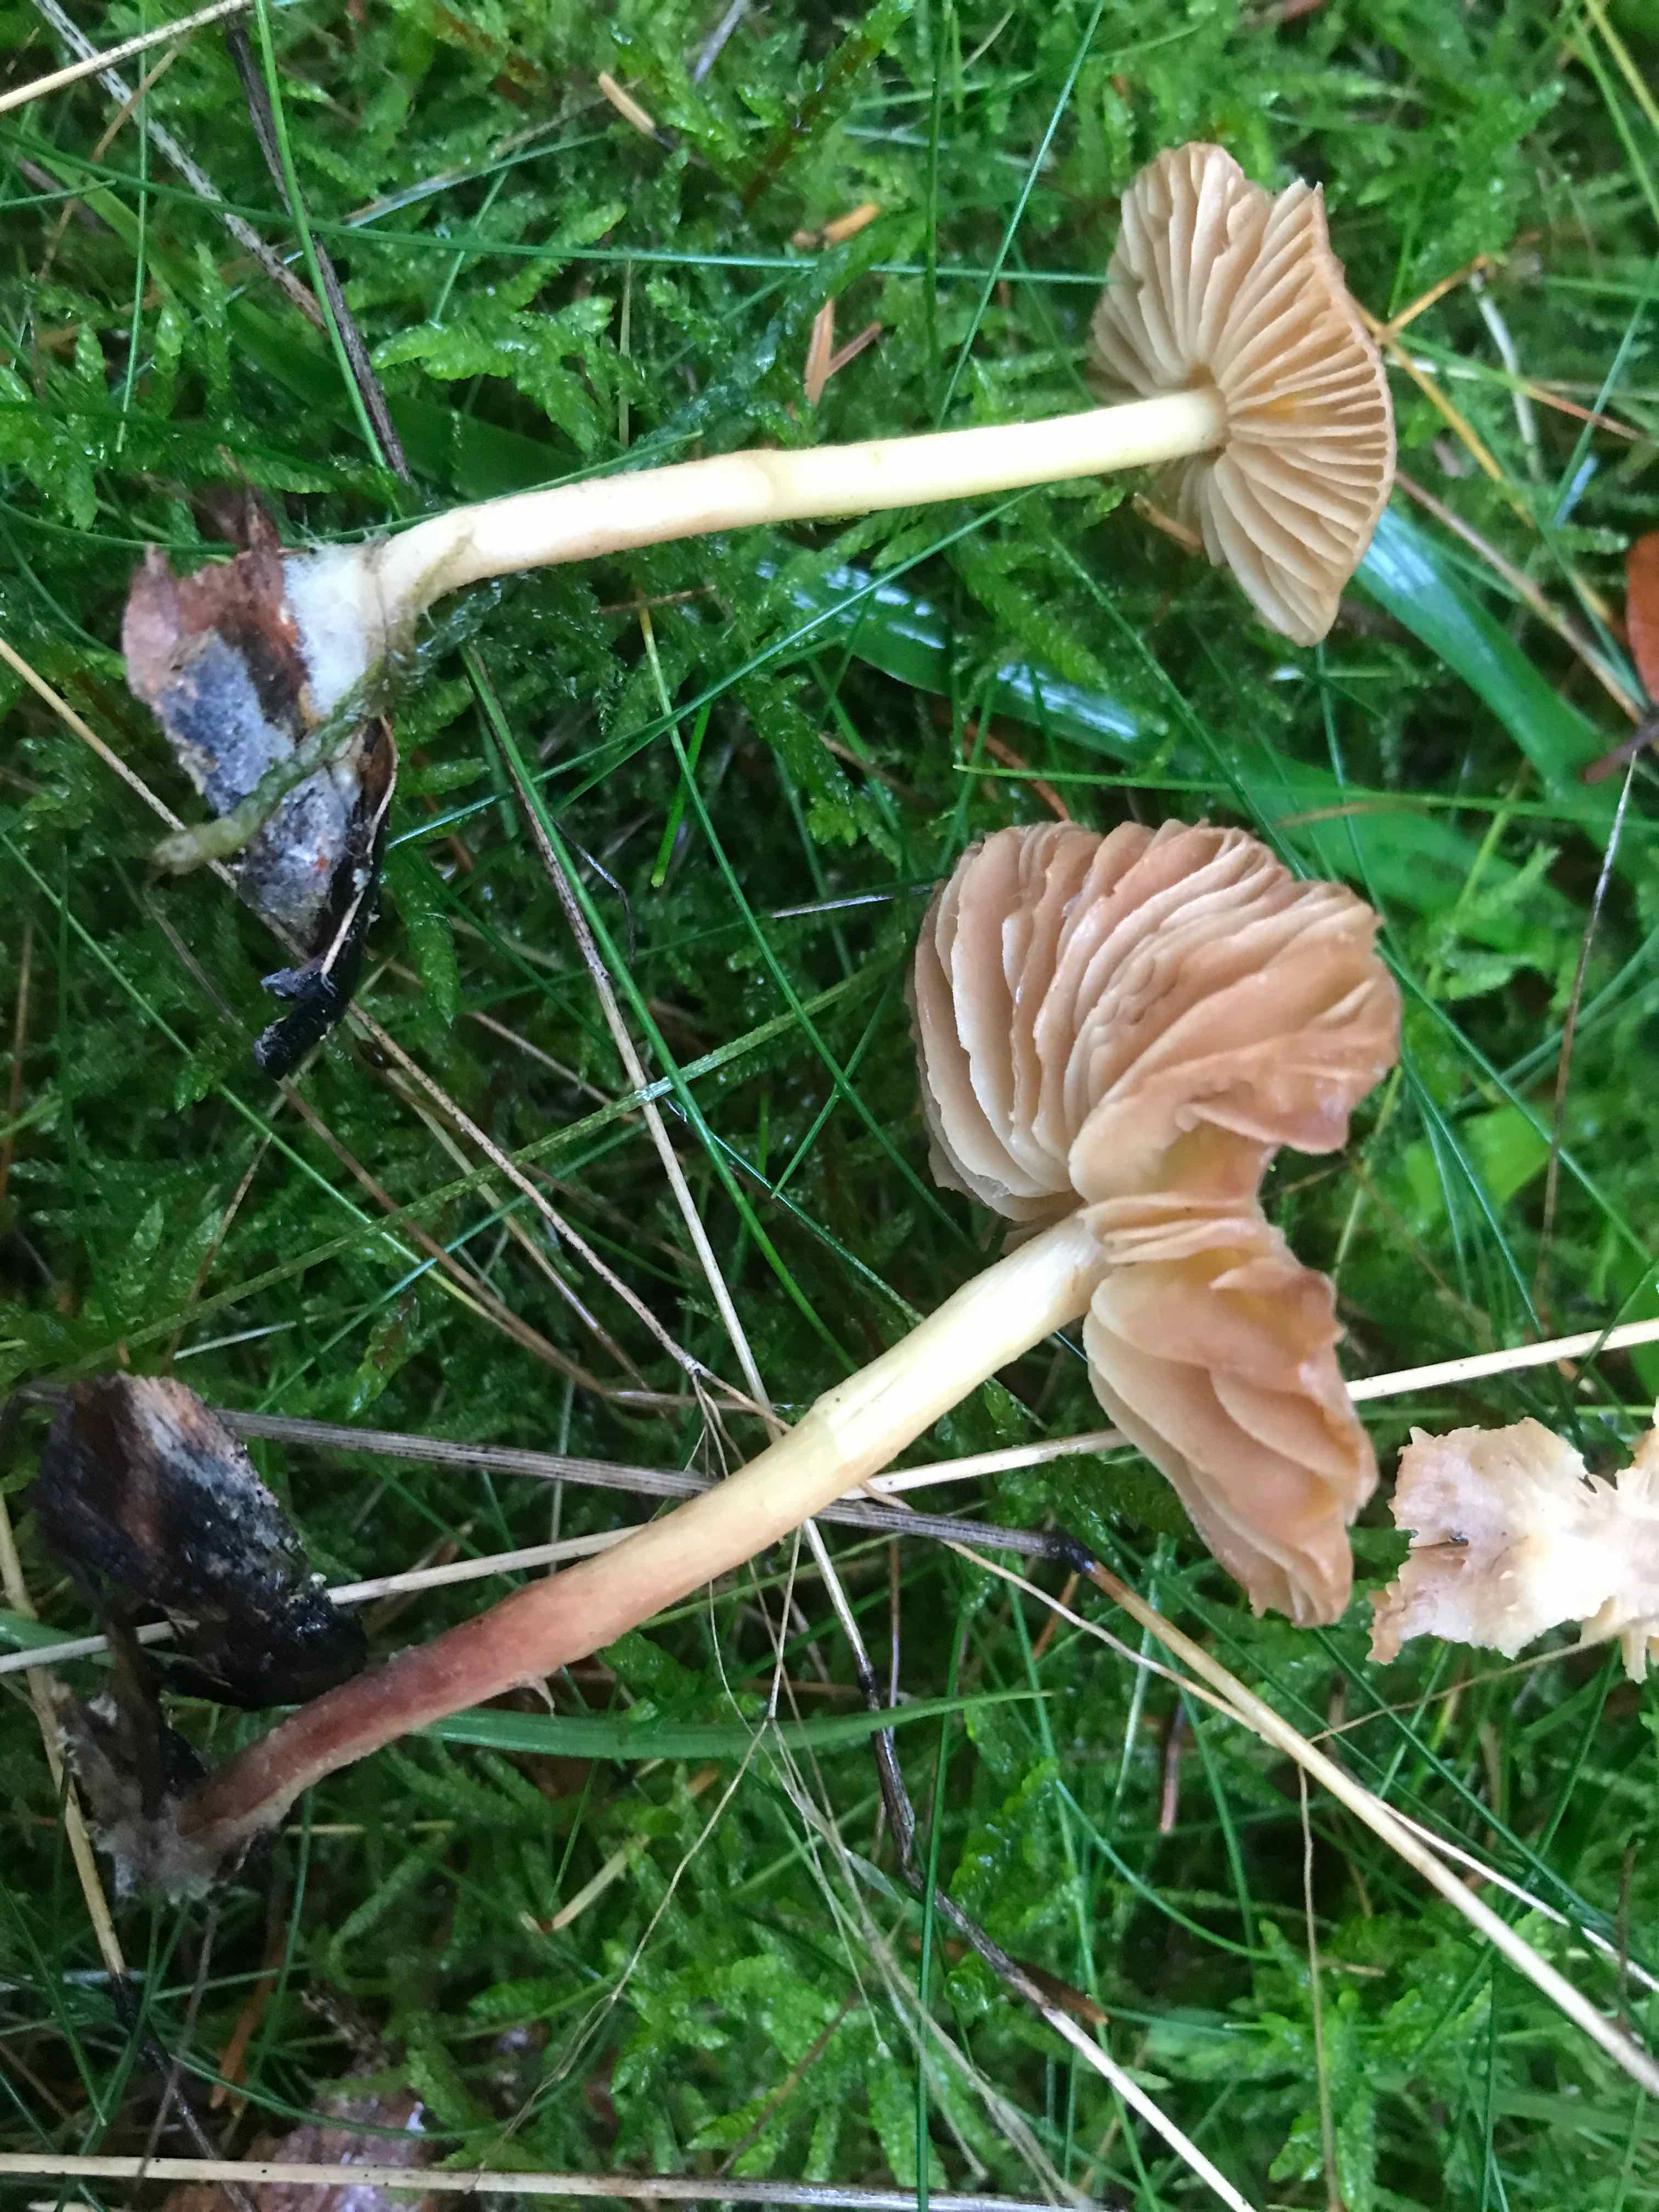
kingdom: Fungi
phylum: Basidiomycota
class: Agaricomycetes
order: Agaricales
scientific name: Agaricales
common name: champignonordenen
